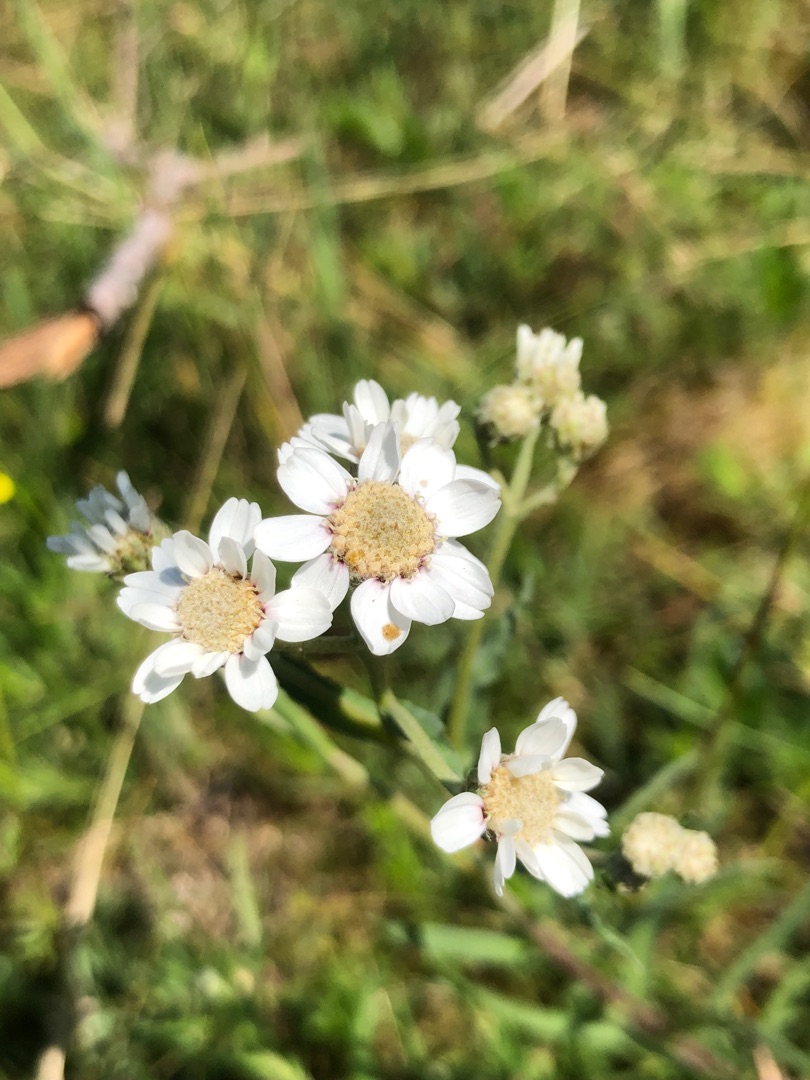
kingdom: Plantae
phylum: Tracheophyta
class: Magnoliopsida
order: Asterales
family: Asteraceae
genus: Achillea
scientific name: Achillea ptarmica
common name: Nyse-røllike
